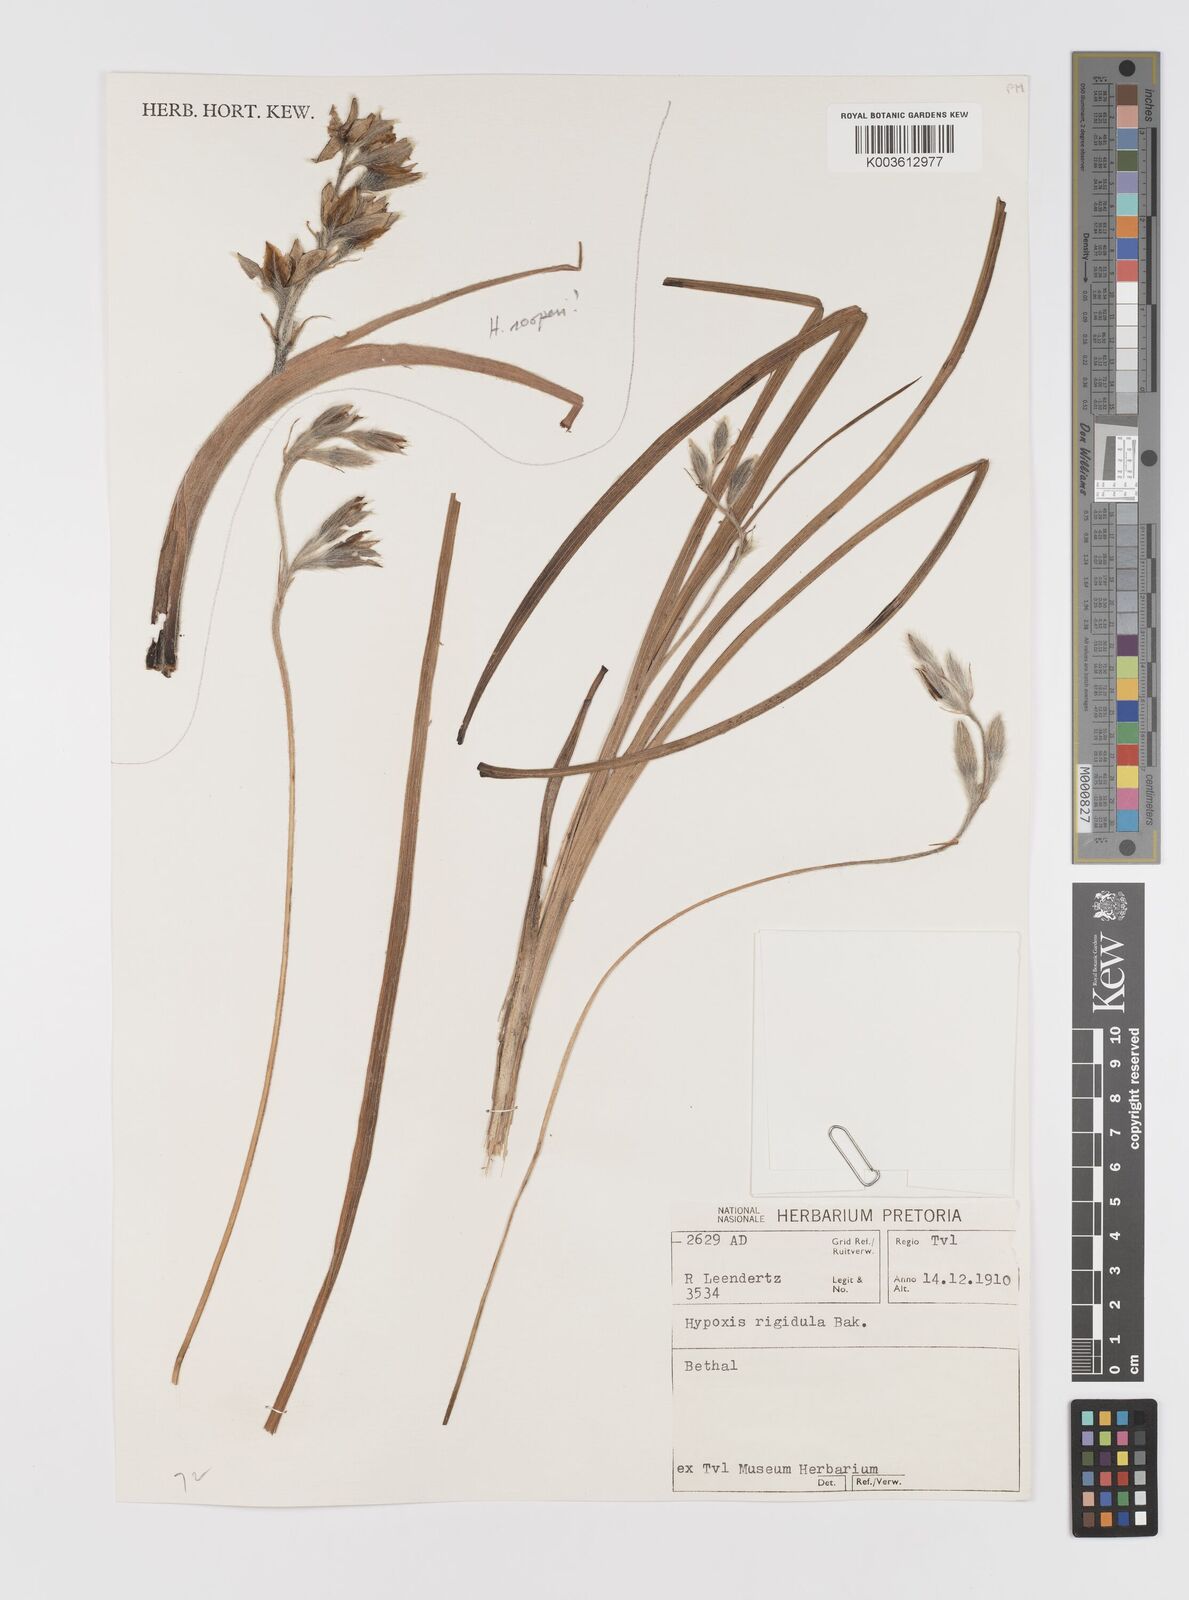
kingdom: Plantae
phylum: Tracheophyta
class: Liliopsida
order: Asparagales
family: Hypoxidaceae
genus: Hypoxis
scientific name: Hypoxis rigidula
